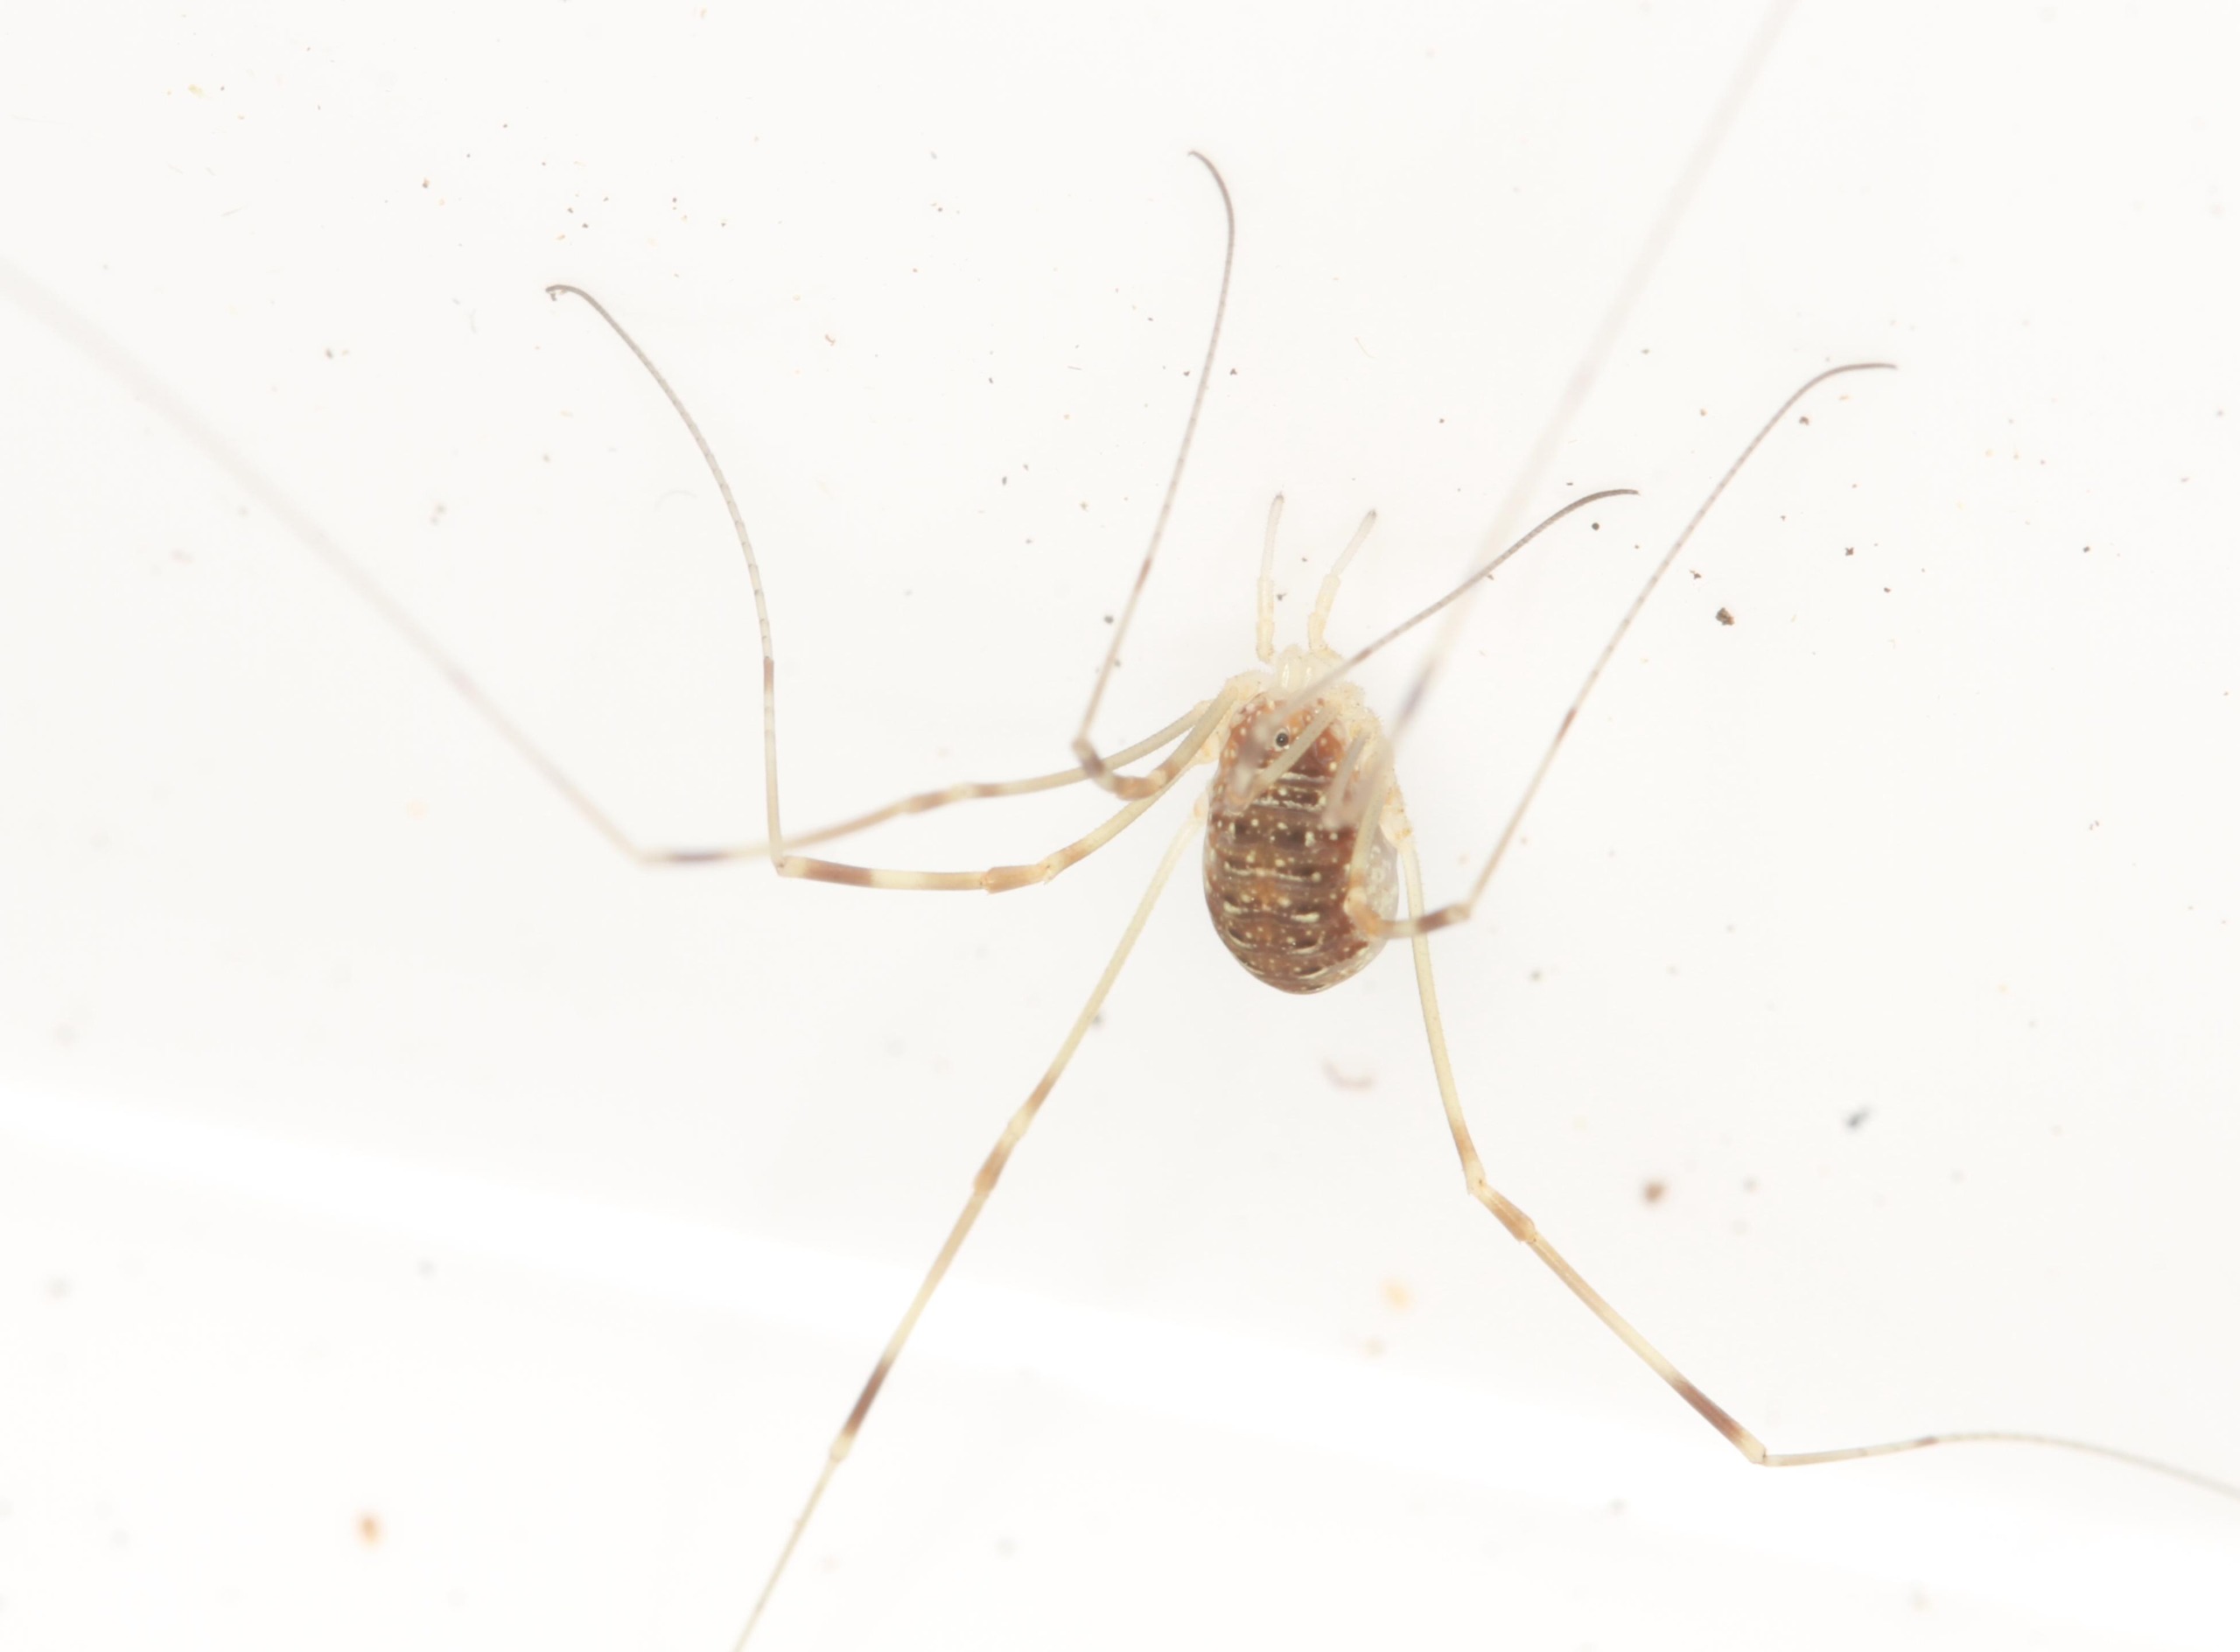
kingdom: Animalia
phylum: Arthropoda
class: Arachnida
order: Opiliones
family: Phalangiidae
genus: Opilio
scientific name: Opilio canestrinii
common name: Orange vægmejer
